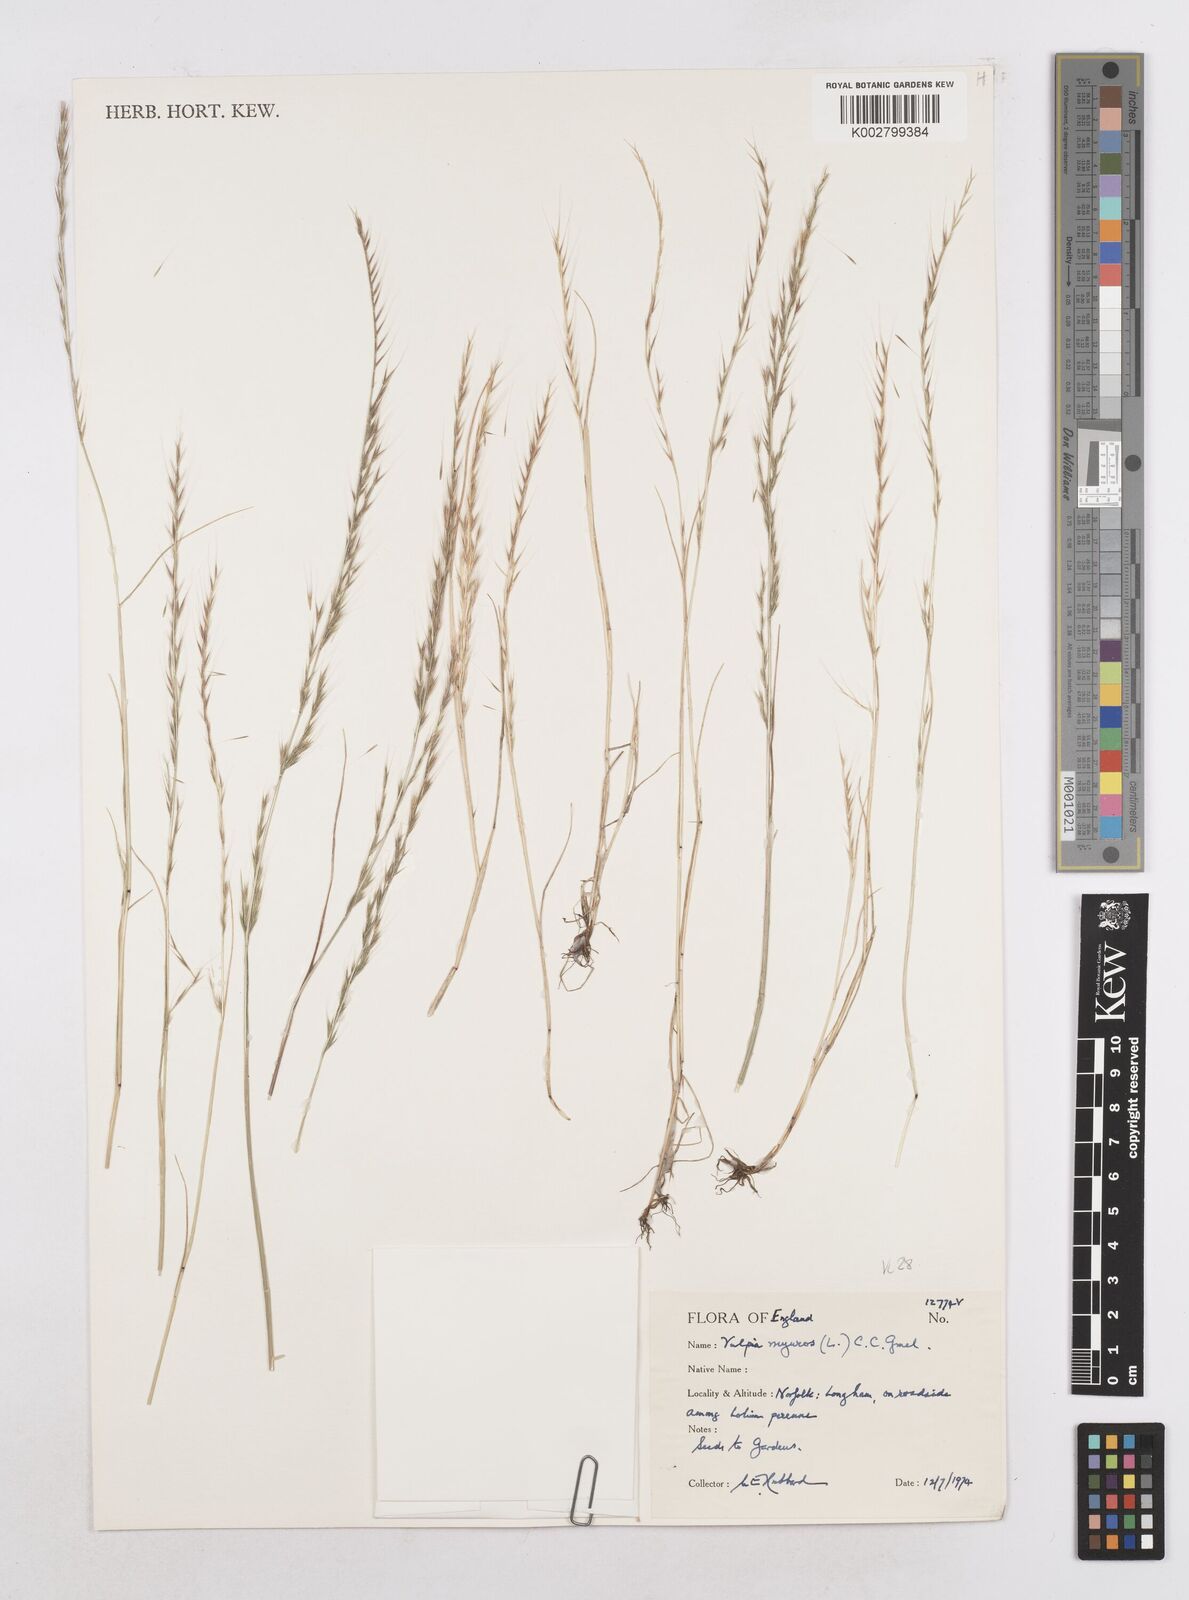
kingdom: Plantae
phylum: Tracheophyta
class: Liliopsida
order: Poales
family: Poaceae
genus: Festuca
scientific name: Festuca myuros
